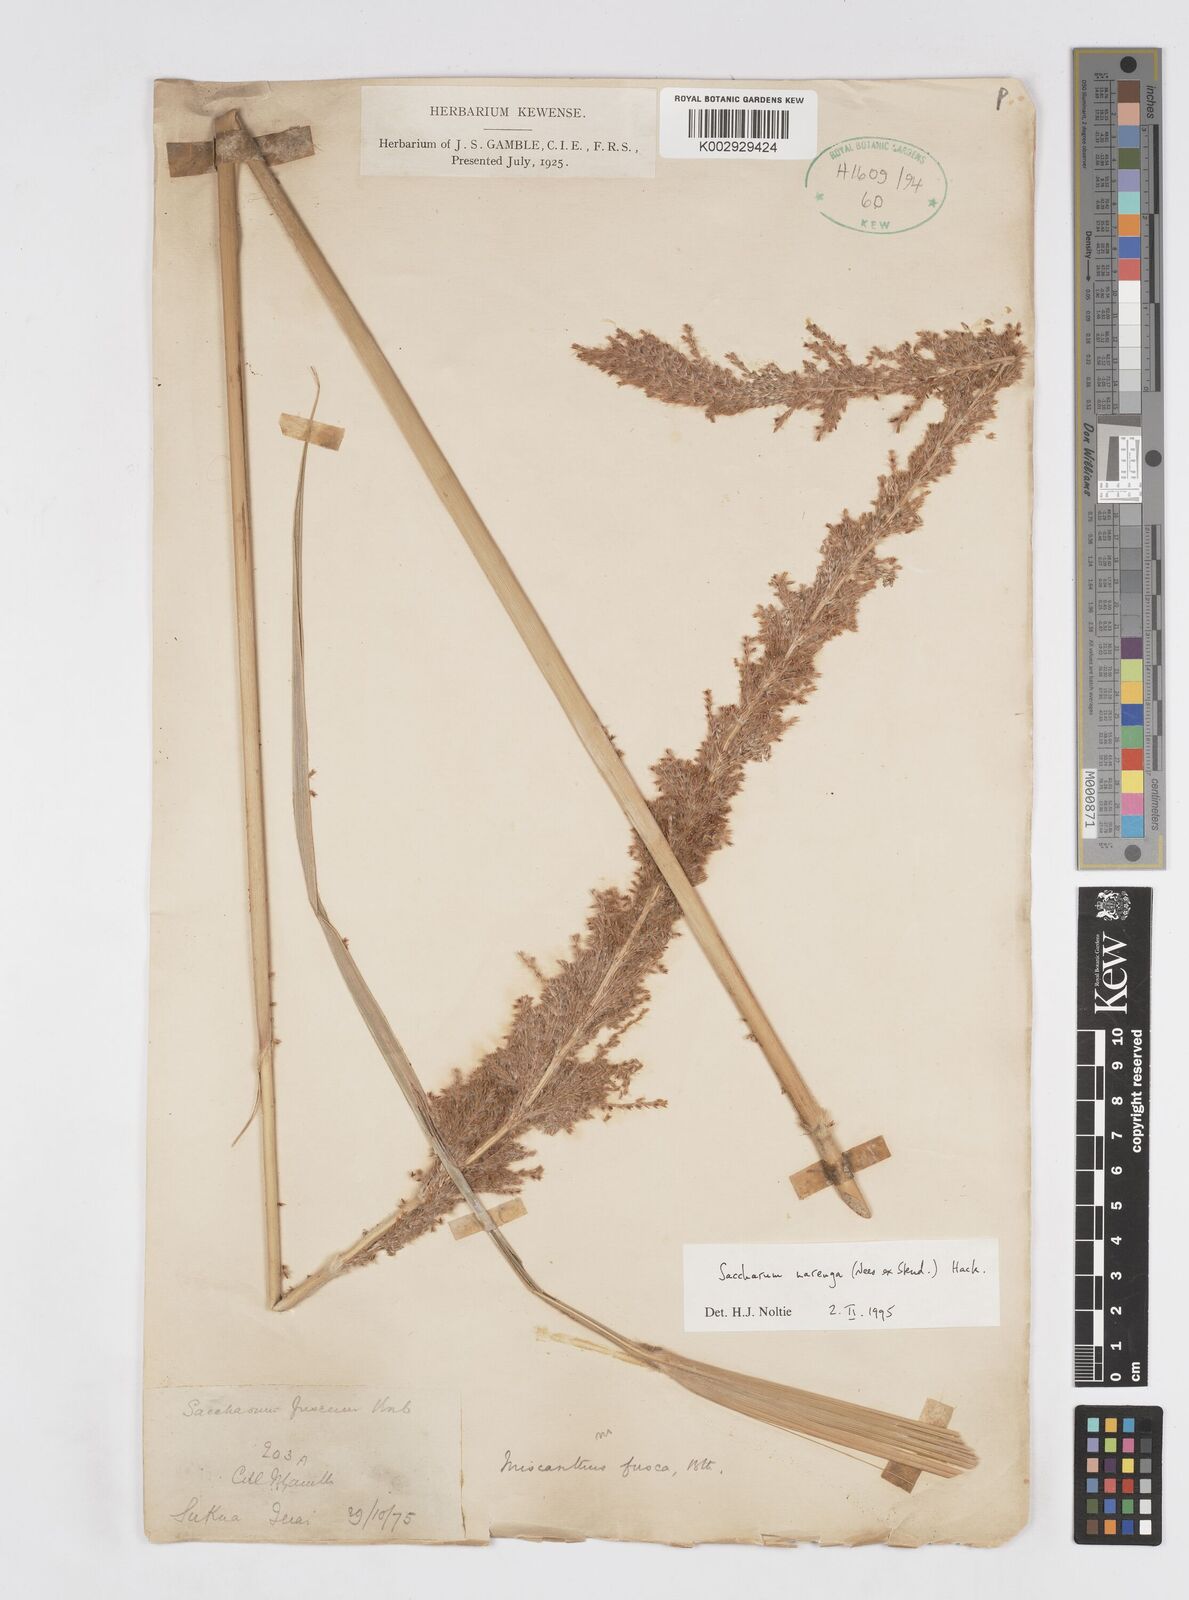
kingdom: Plantae
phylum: Tracheophyta
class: Liliopsida
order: Poales
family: Poaceae
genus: Narenga
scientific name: Narenga porphyrocoma
